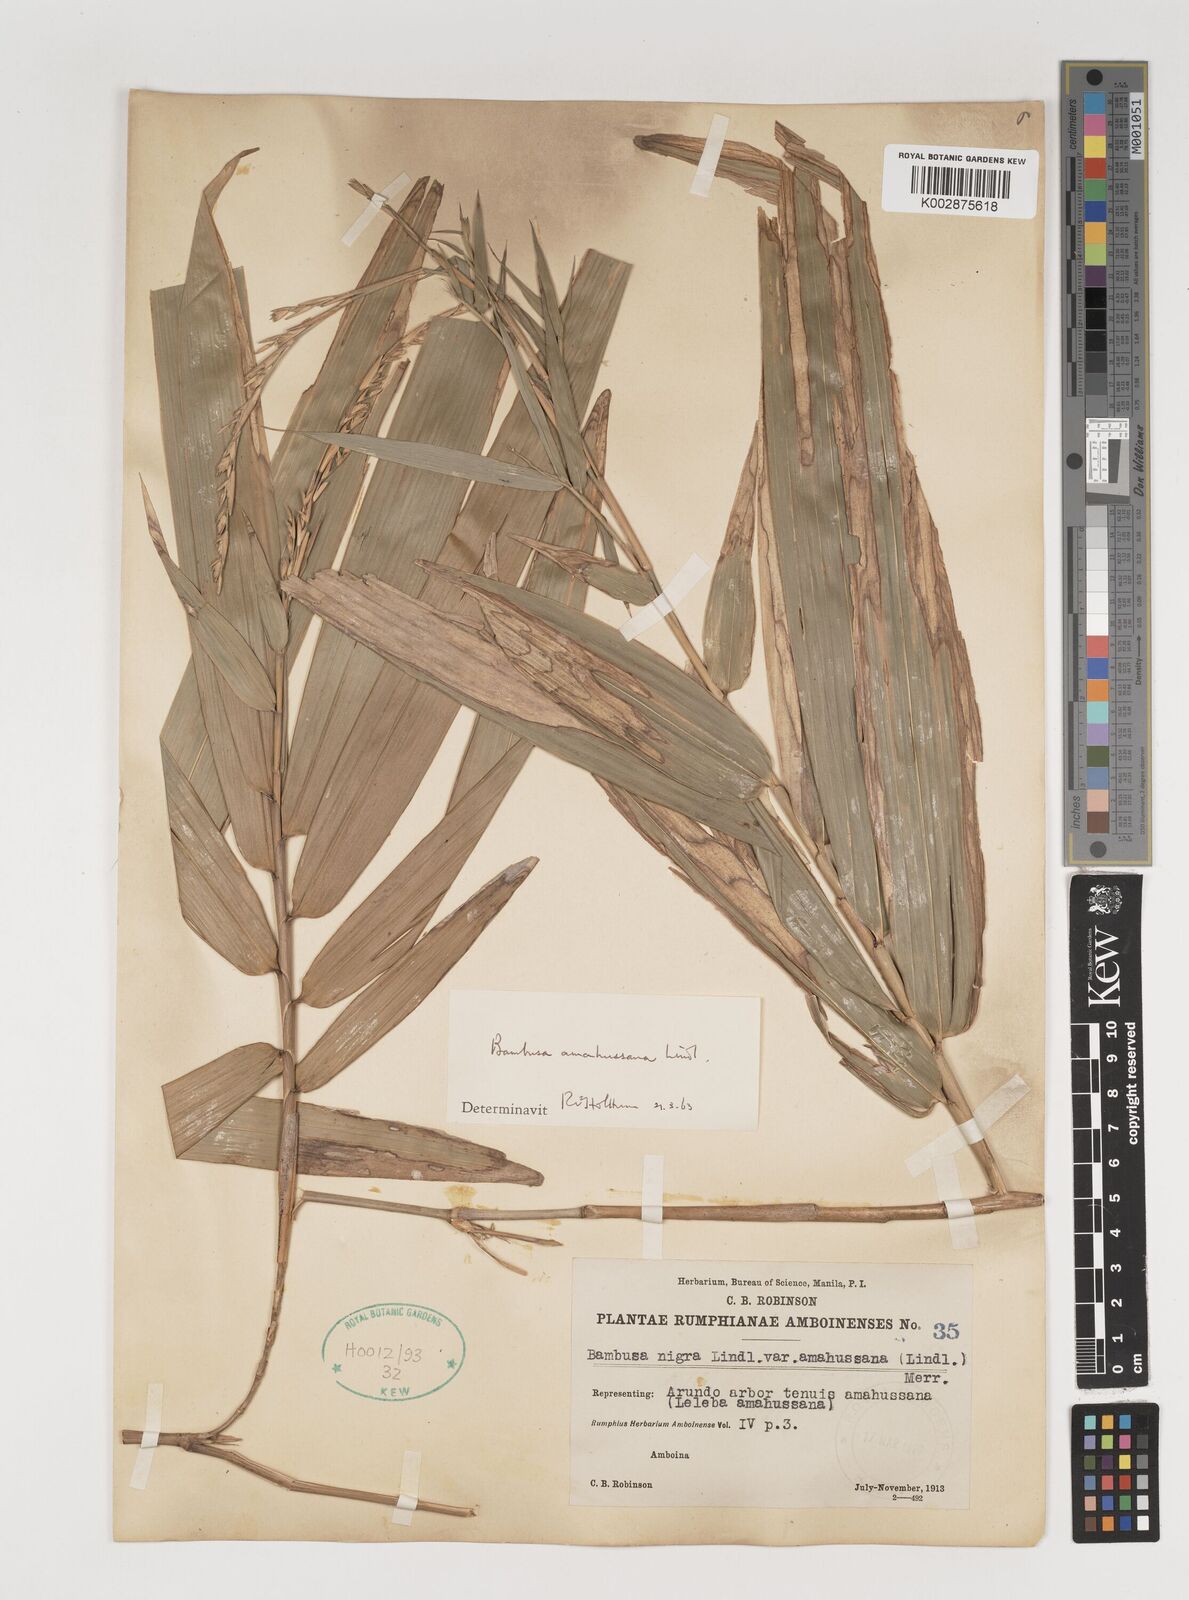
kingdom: Plantae
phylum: Tracheophyta
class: Liliopsida
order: Poales
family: Poaceae
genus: Neololeba
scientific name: Neololeba amahussana
